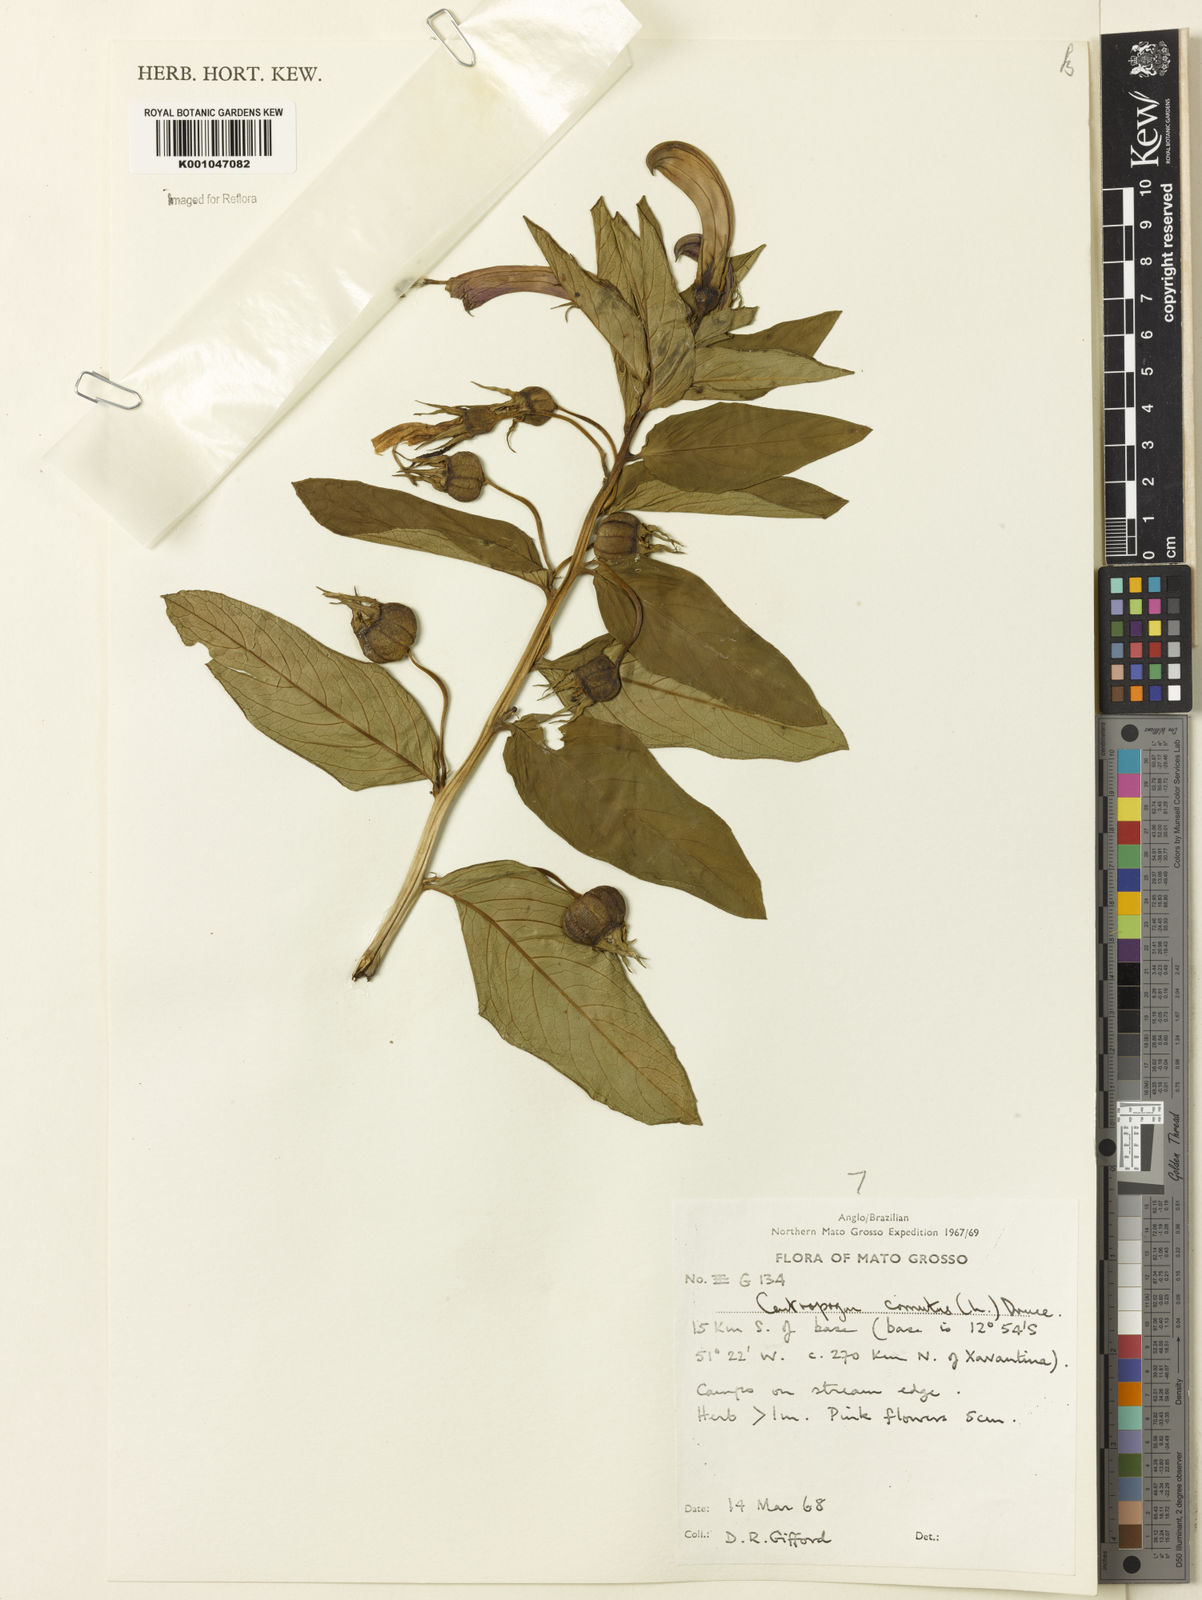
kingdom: Plantae
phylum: Tracheophyta
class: Magnoliopsida
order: Asterales
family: Campanulaceae
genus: Centropogon
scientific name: Centropogon cornutus
